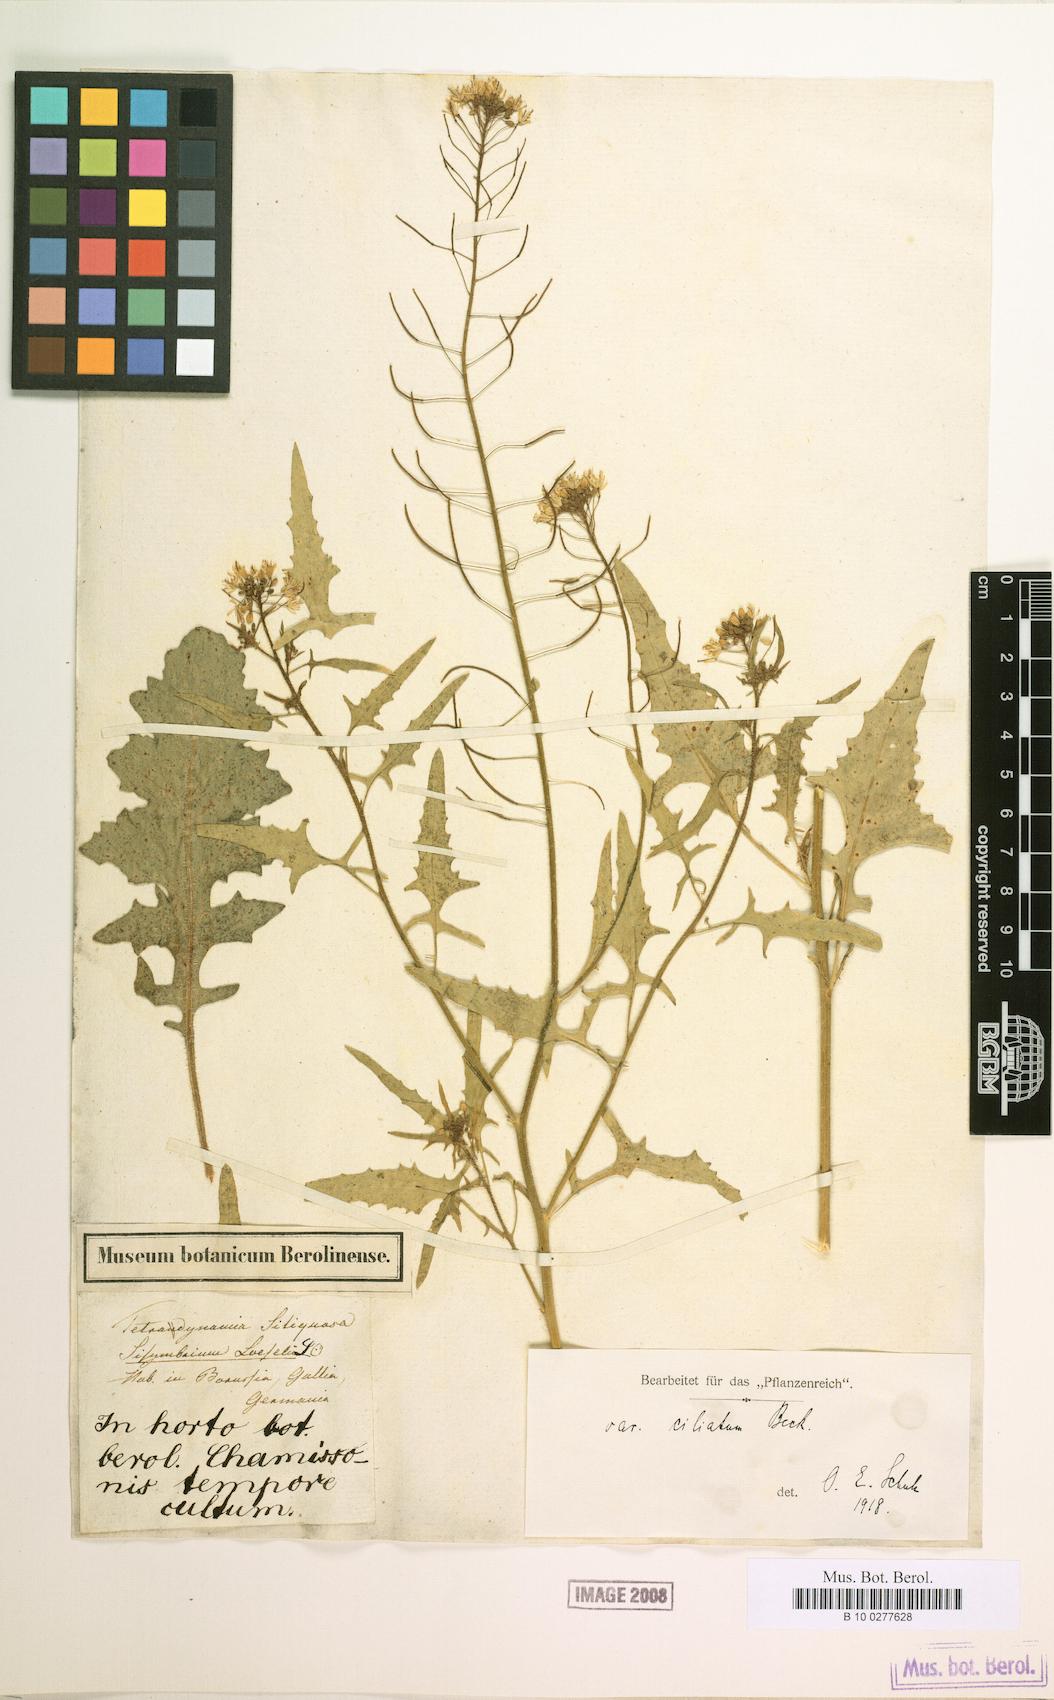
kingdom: Plantae
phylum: Tracheophyta
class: Magnoliopsida
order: Brassicales
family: Brassicaceae
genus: Sisymbrium
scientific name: Sisymbrium loeselii
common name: False london-rocket
